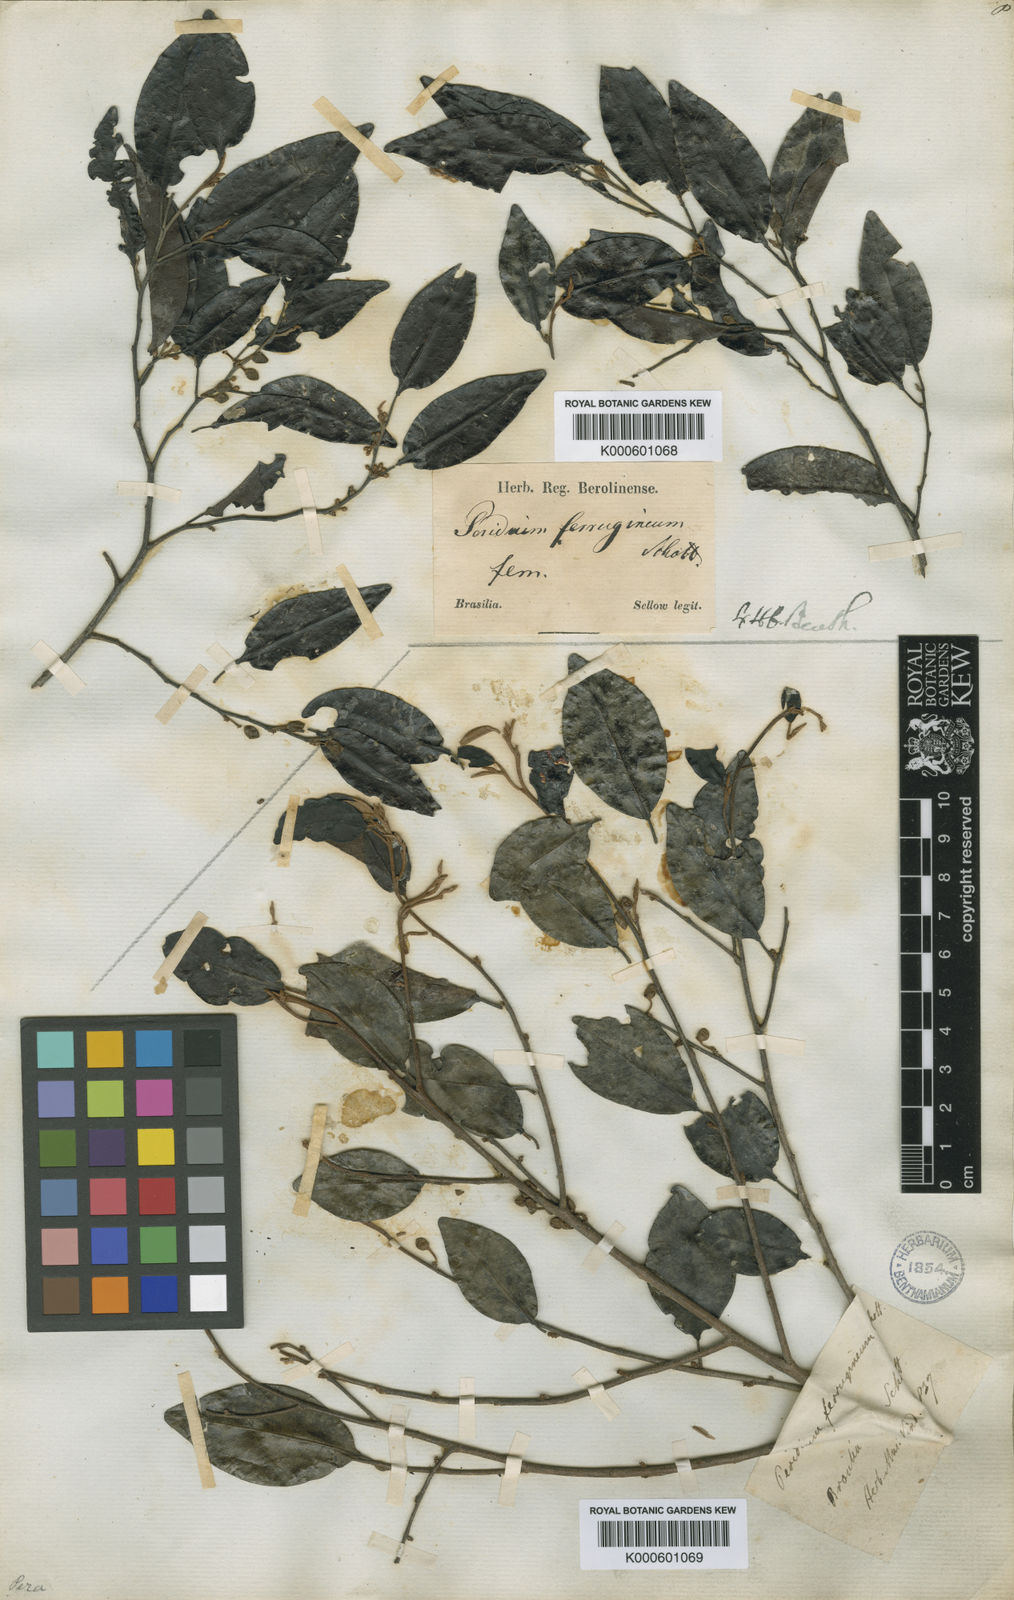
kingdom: Plantae
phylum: Tracheophyta
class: Magnoliopsida
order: Malpighiales
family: Peraceae
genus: Pera
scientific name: Pera
